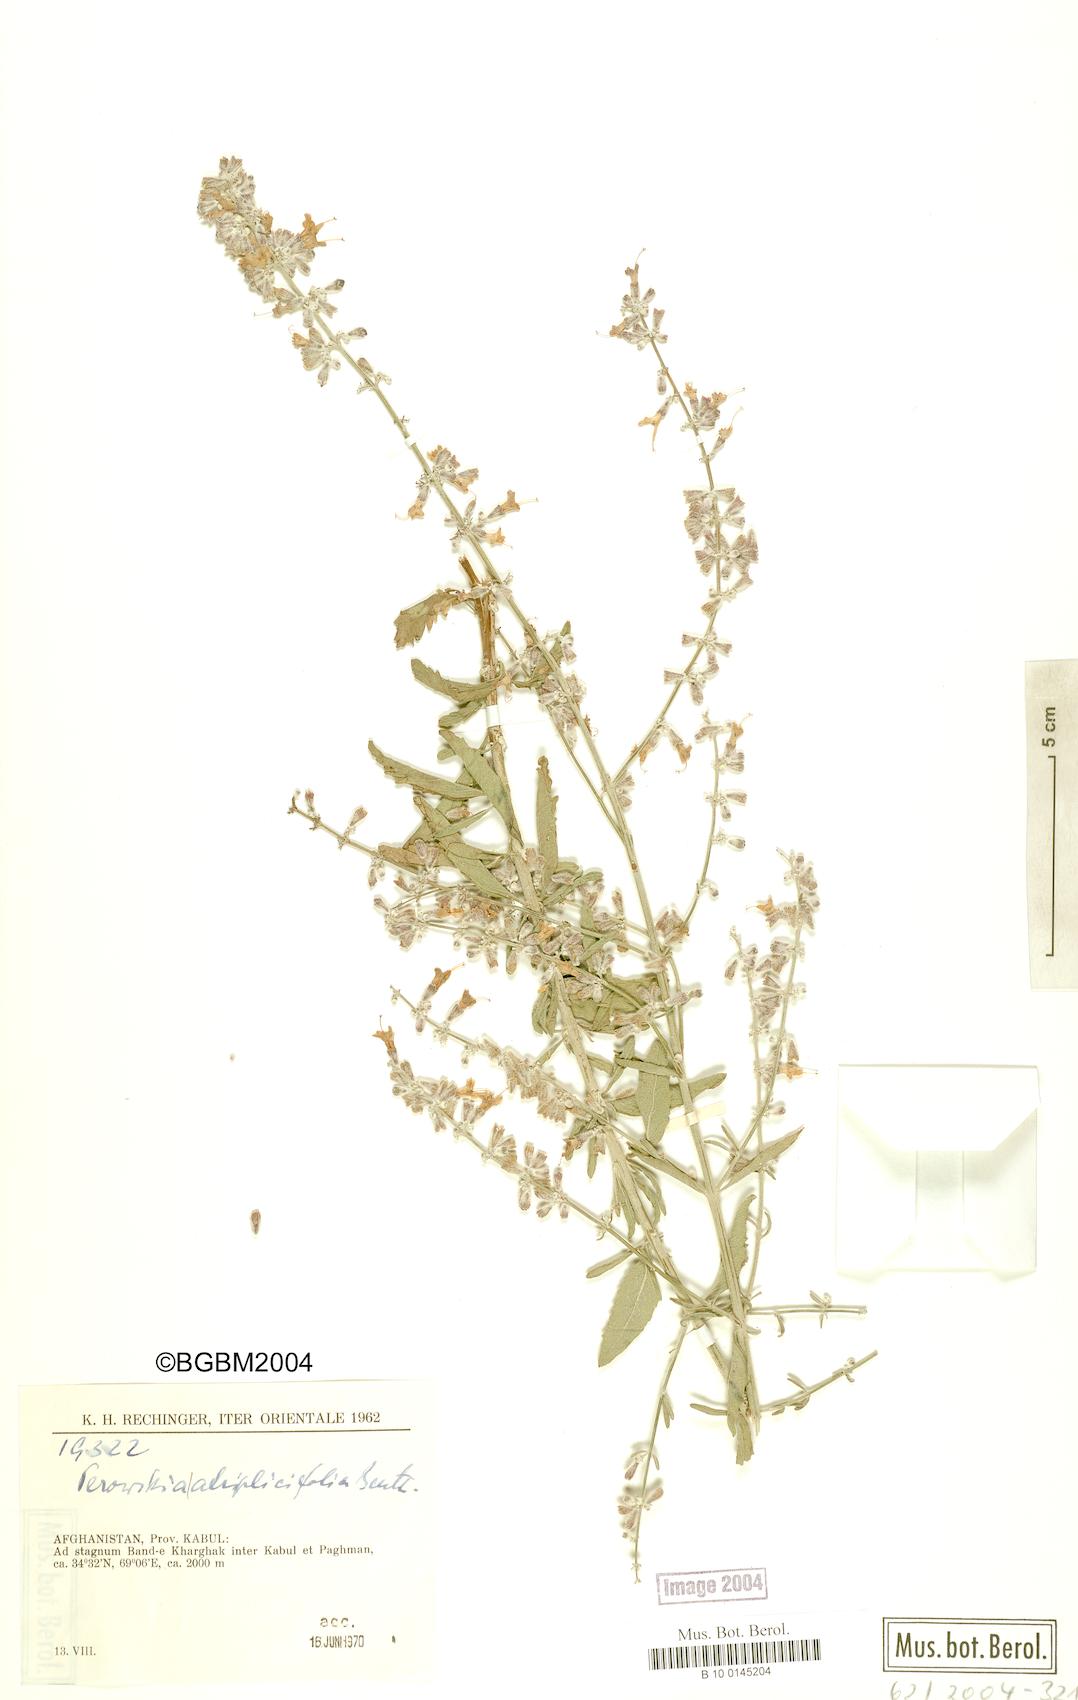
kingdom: Plantae
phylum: Tracheophyta
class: Magnoliopsida
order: Lamiales
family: Lamiaceae
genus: Salvia
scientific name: Salvia yangii
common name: Russian sage
